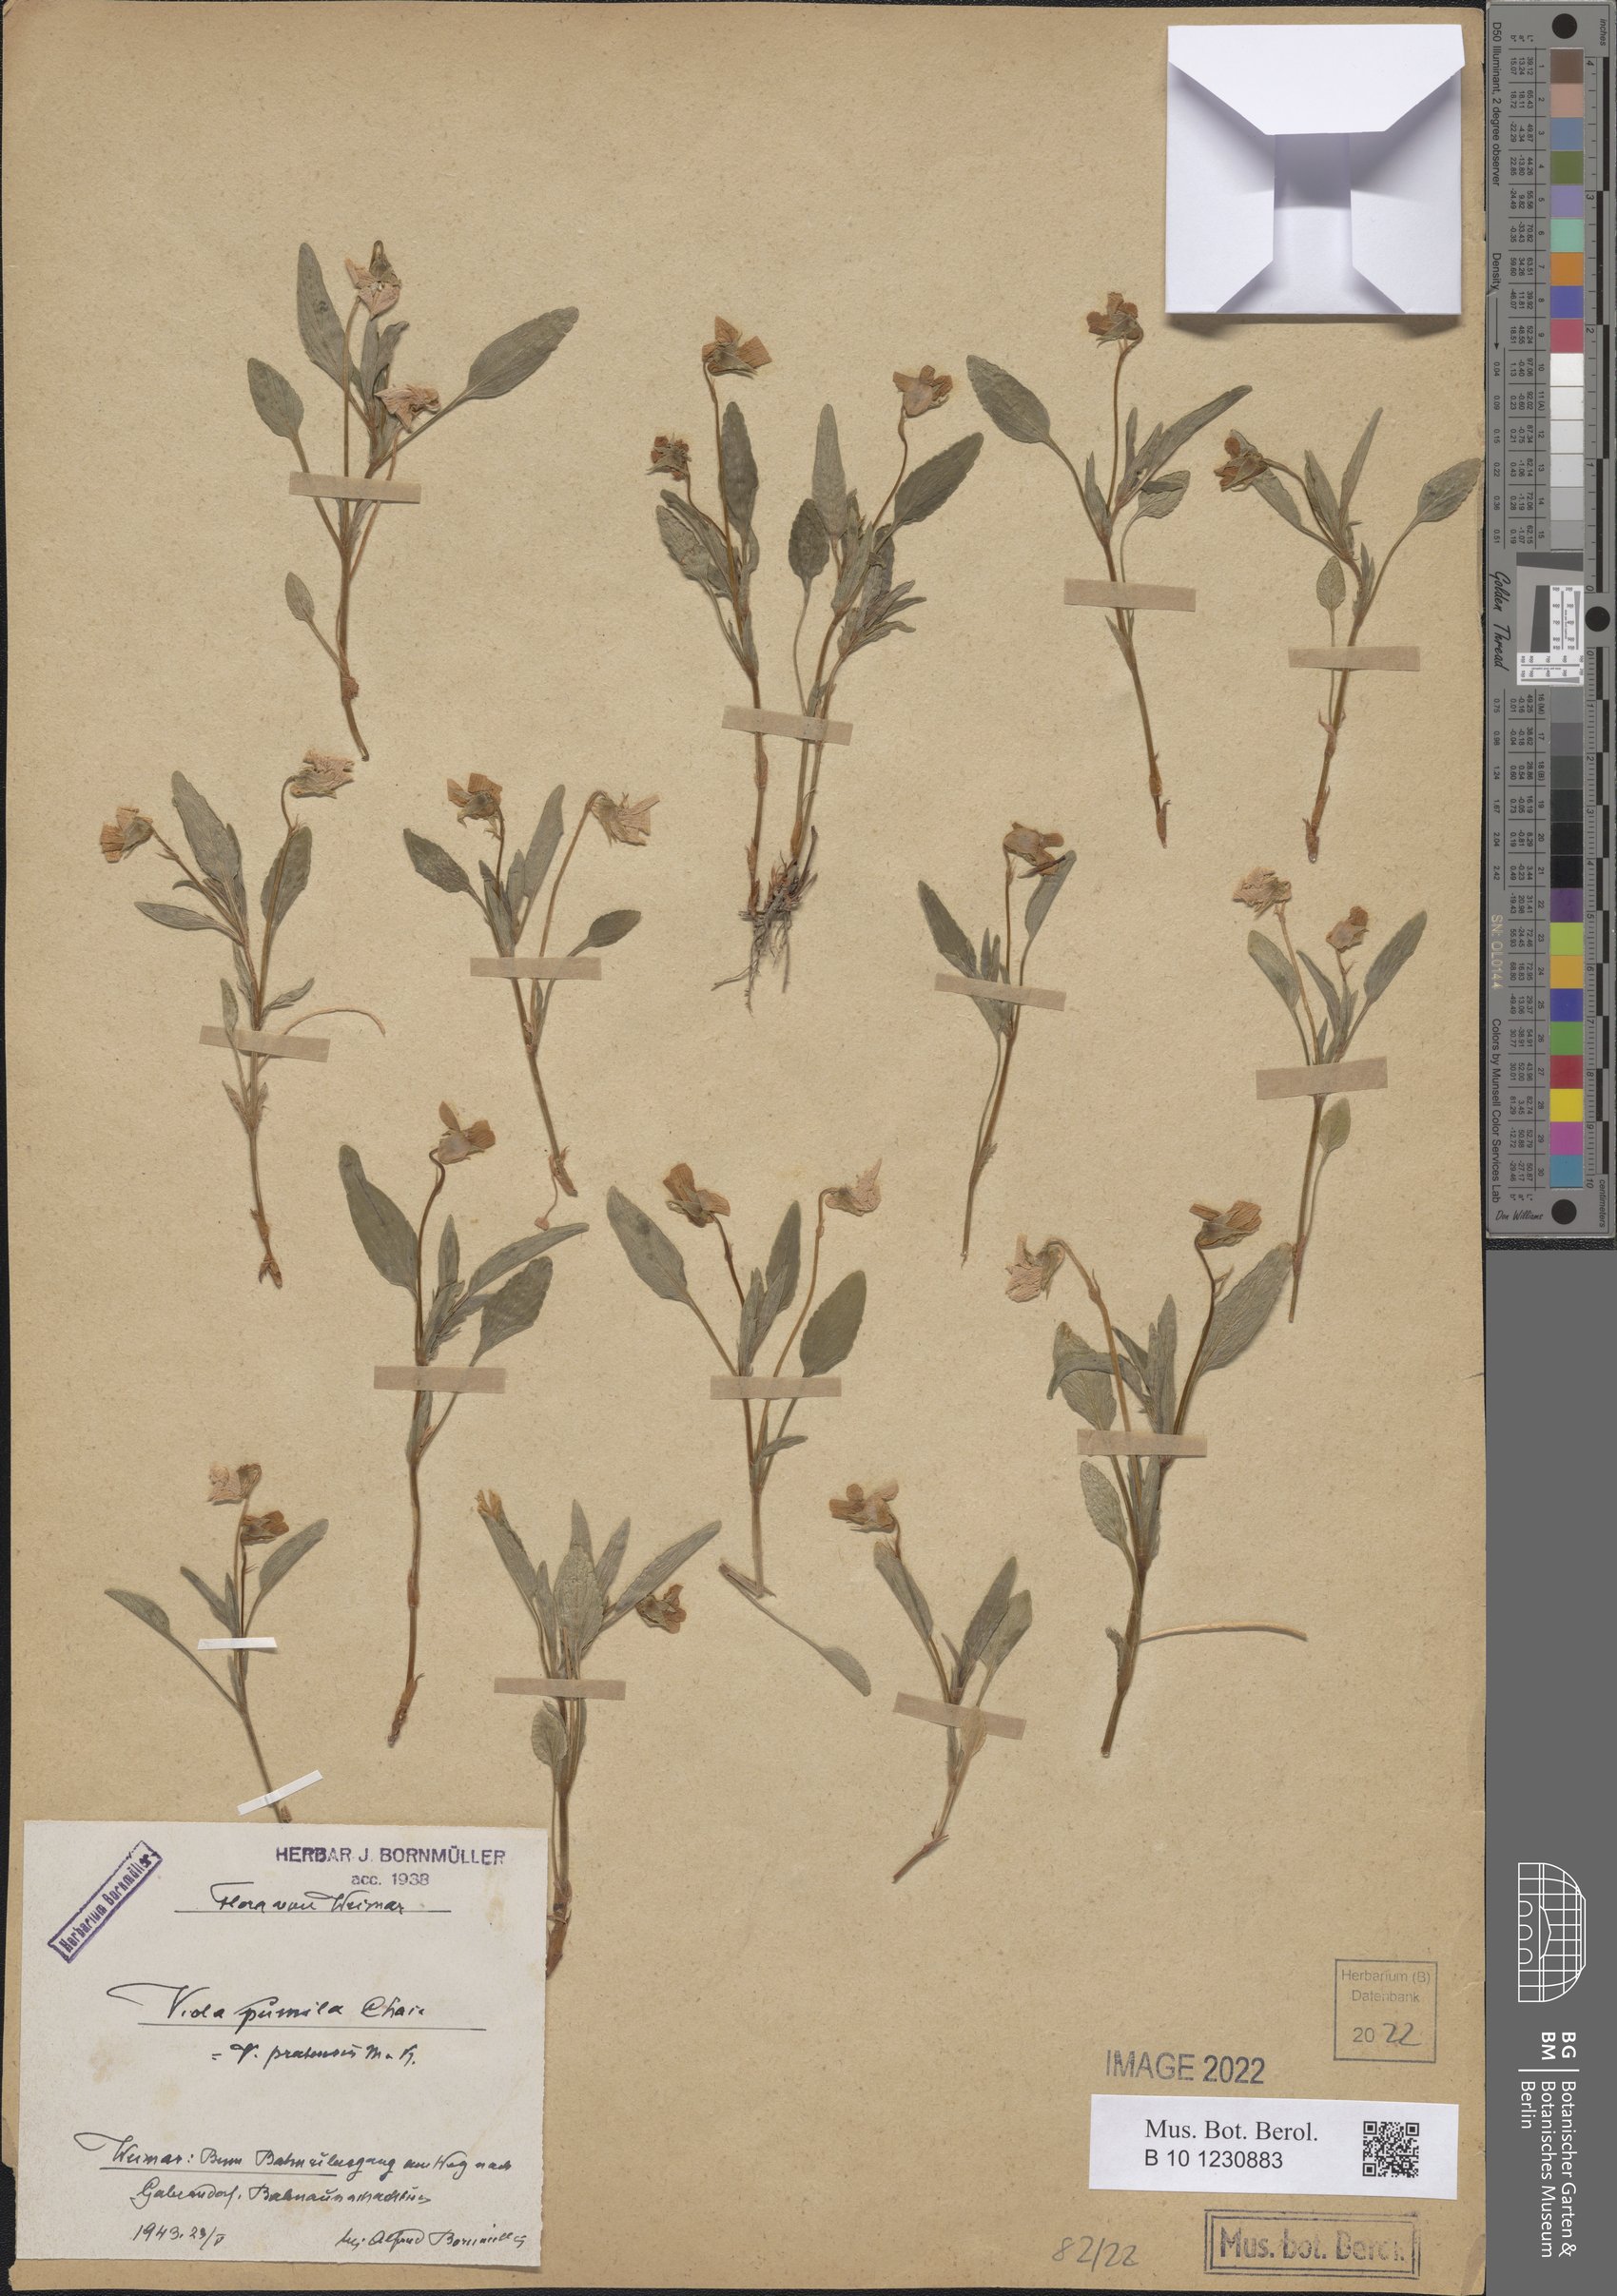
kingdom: Plantae
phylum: Tracheophyta
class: Magnoliopsida
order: Malpighiales
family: Violaceae
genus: Viola
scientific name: Viola pumila
